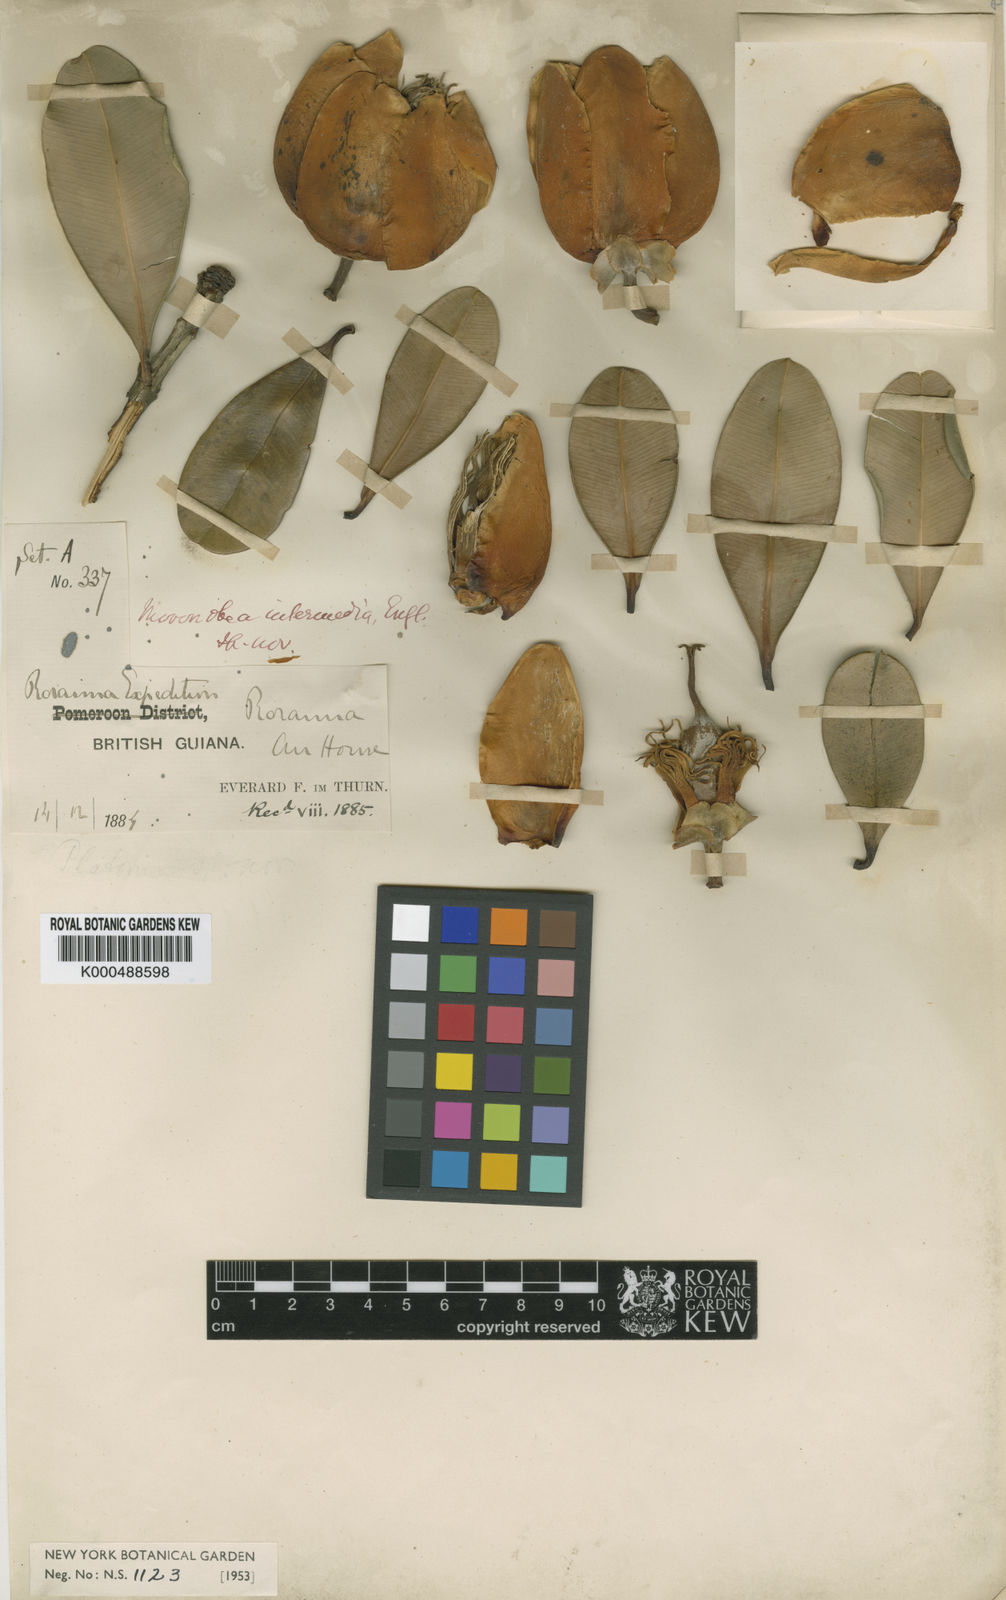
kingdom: Plantae
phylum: Tracheophyta
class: Magnoliopsida
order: Malpighiales
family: Clusiaceae
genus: Moronobea
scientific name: Moronobea intermedia
